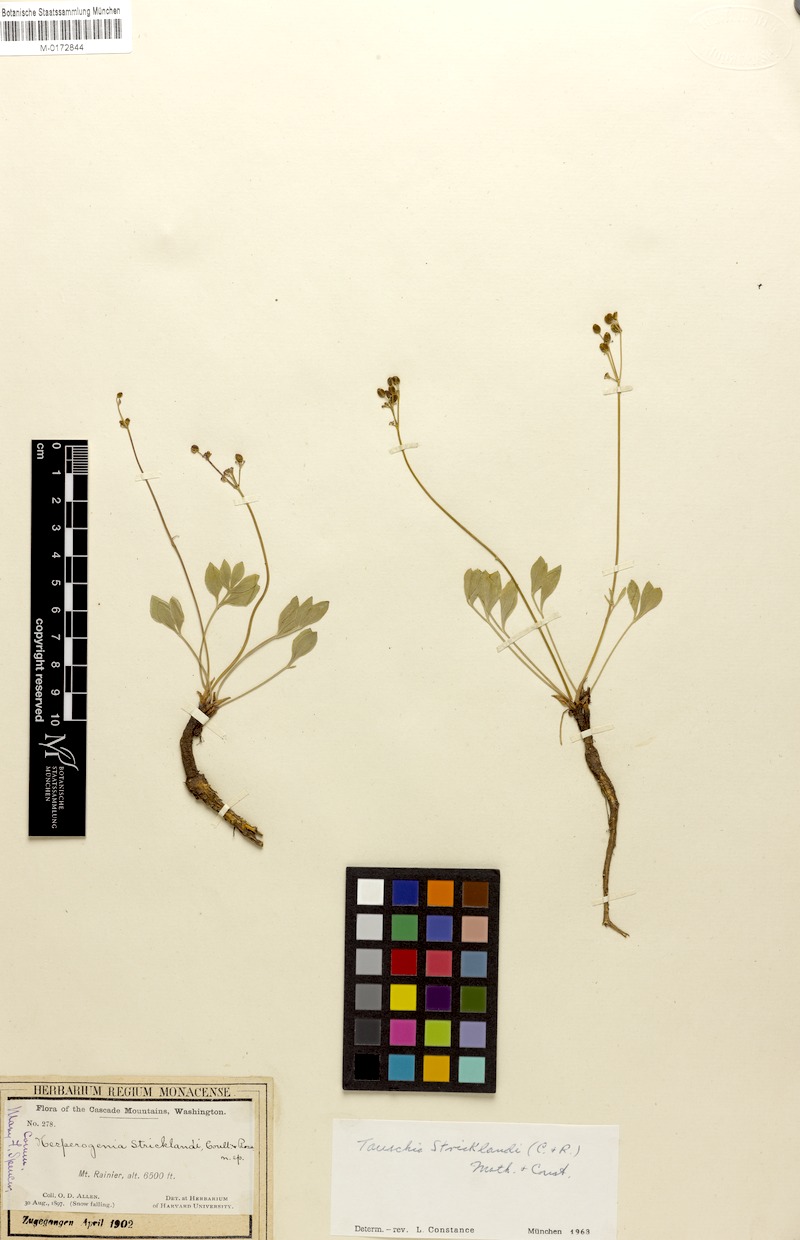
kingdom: Plantae
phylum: Tracheophyta
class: Magnoliopsida
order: Apiales
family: Apiaceae
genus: Tauschia
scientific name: Tauschia stricklandii
